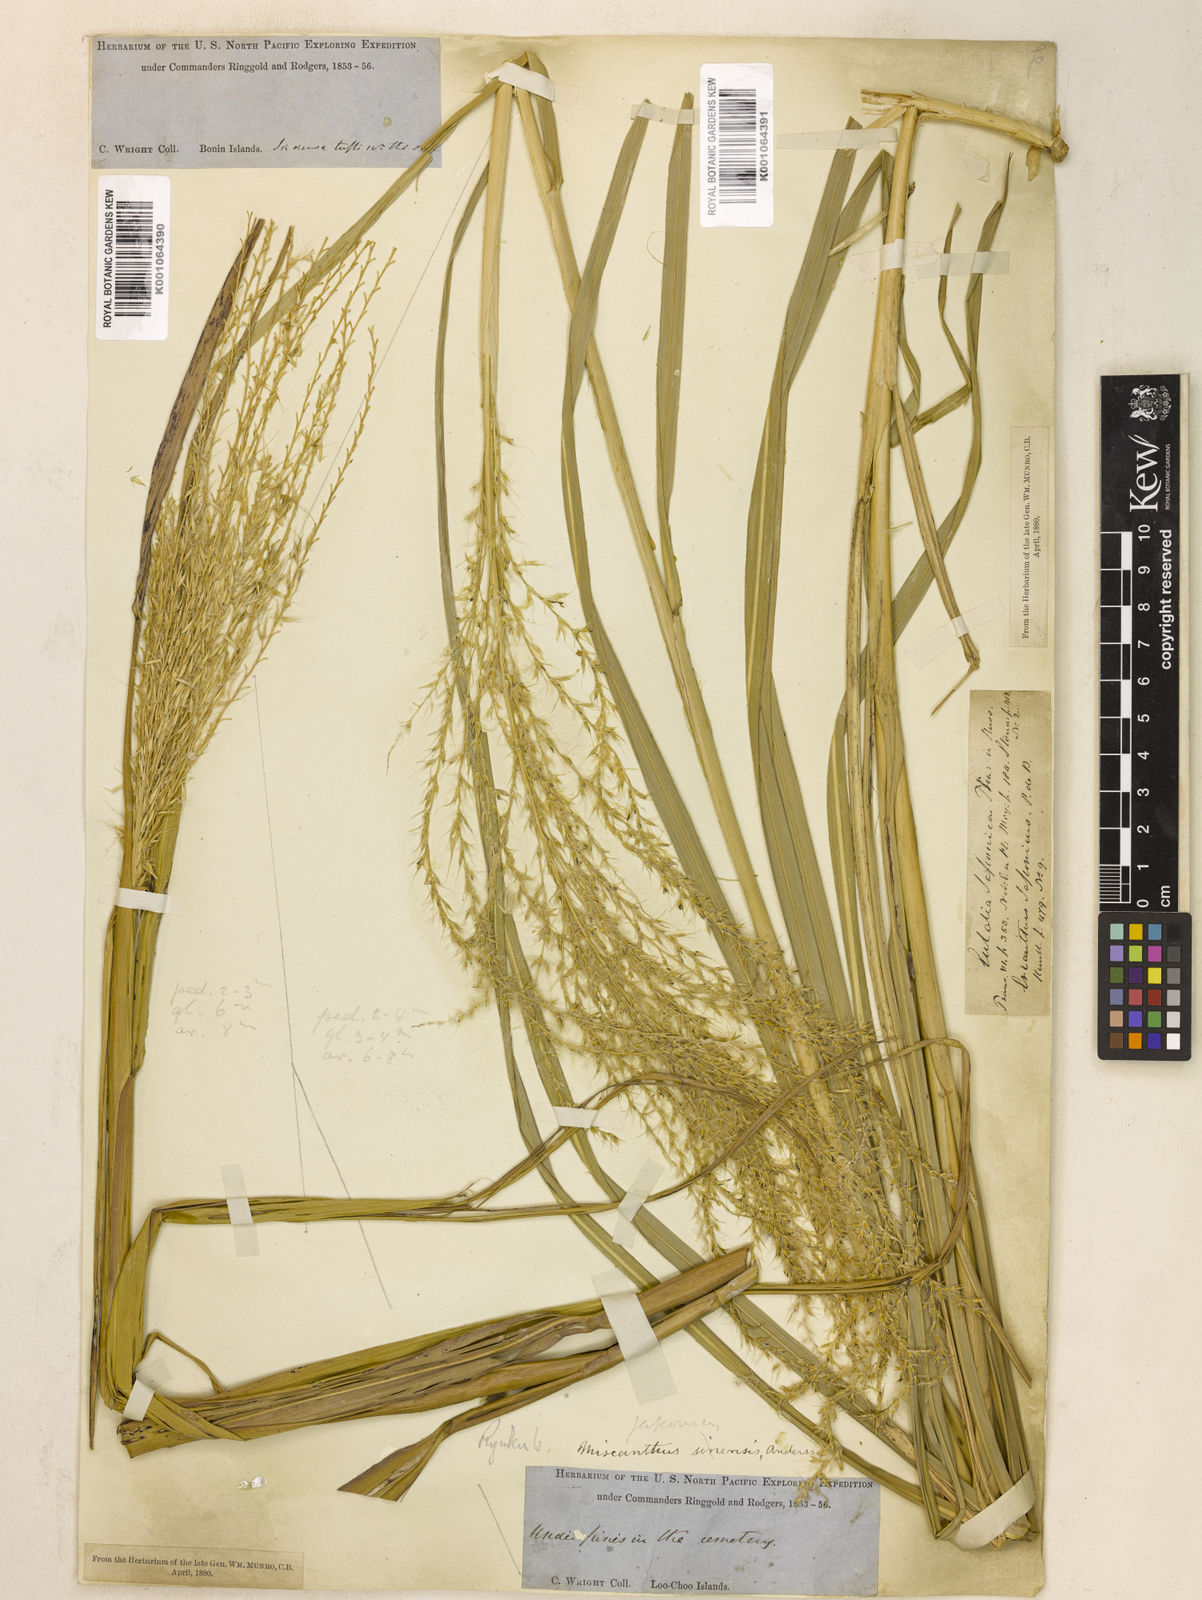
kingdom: Plantae
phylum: Tracheophyta
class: Liliopsida
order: Poales
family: Poaceae
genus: Miscanthus
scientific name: Miscanthus sinensis
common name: Chinese silvergrass
